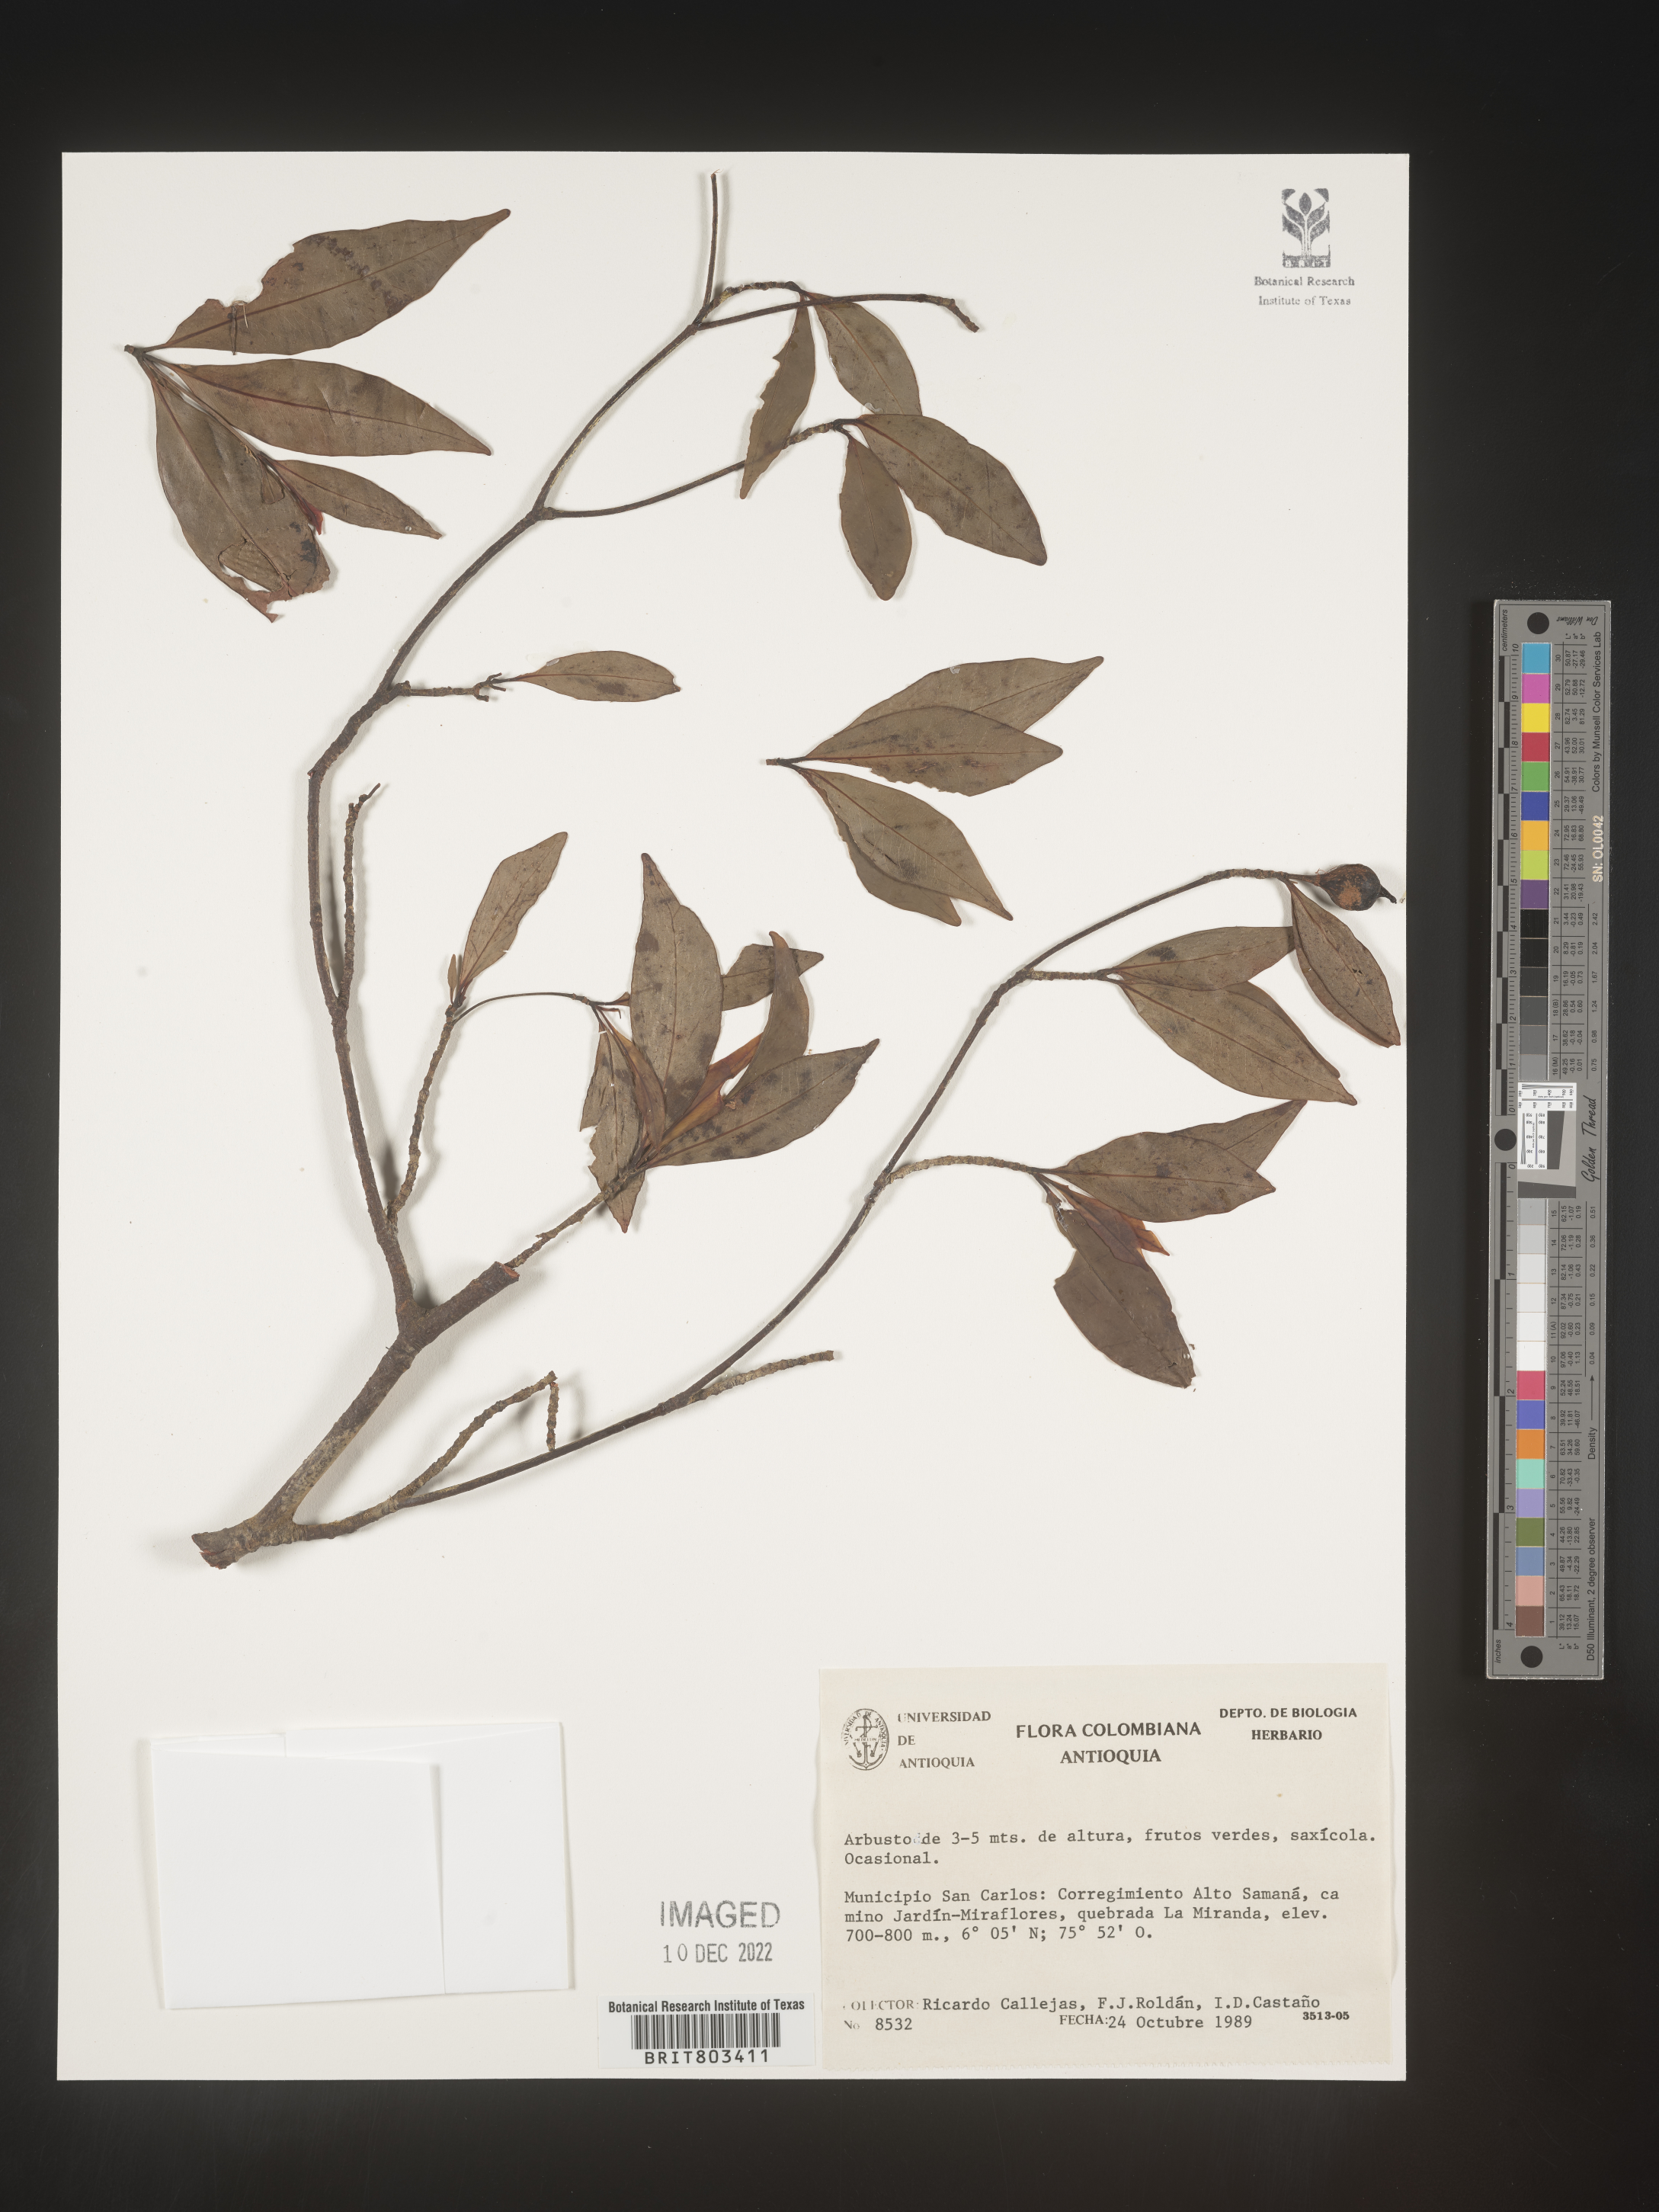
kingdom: Plantae
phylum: Tracheophyta
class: Magnoliopsida
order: Malpighiales
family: Clusiaceae
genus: Tovomita
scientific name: Tovomita
